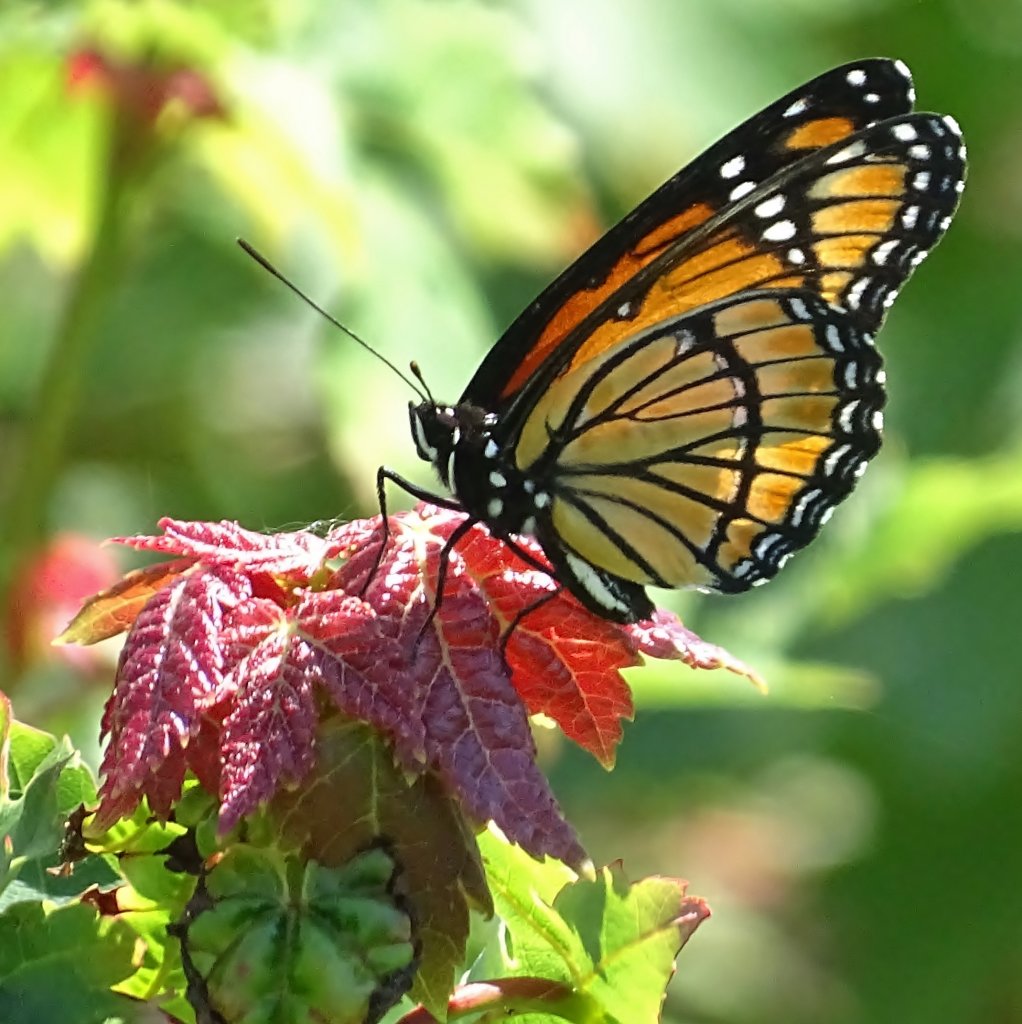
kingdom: Animalia
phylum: Arthropoda
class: Insecta
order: Lepidoptera
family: Nymphalidae
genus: Limenitis
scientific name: Limenitis archippus
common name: Viceroy
